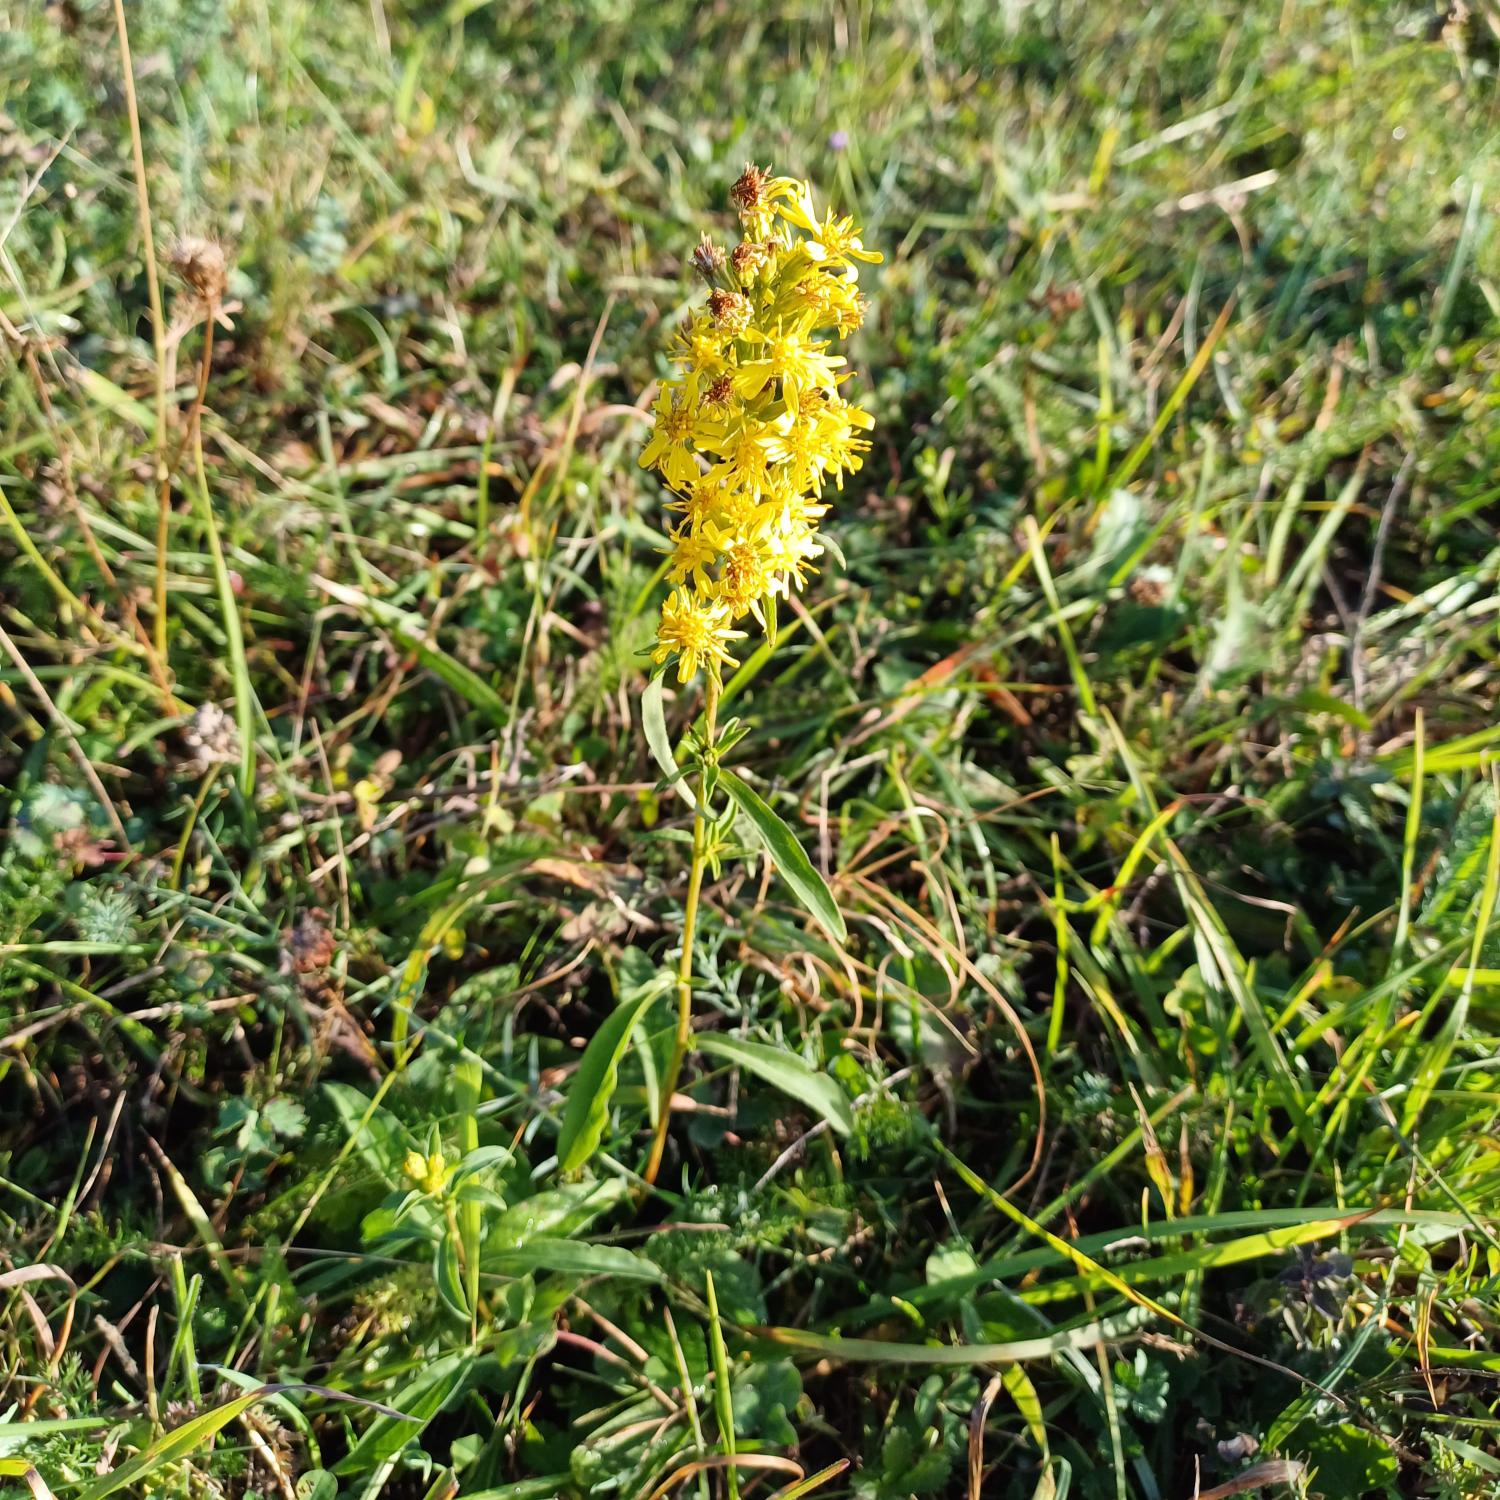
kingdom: Plantae
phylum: Tracheophyta
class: Magnoliopsida
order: Asterales
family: Asteraceae
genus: Solidago
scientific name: Solidago virgaurea
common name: Almindelig gyldenris
